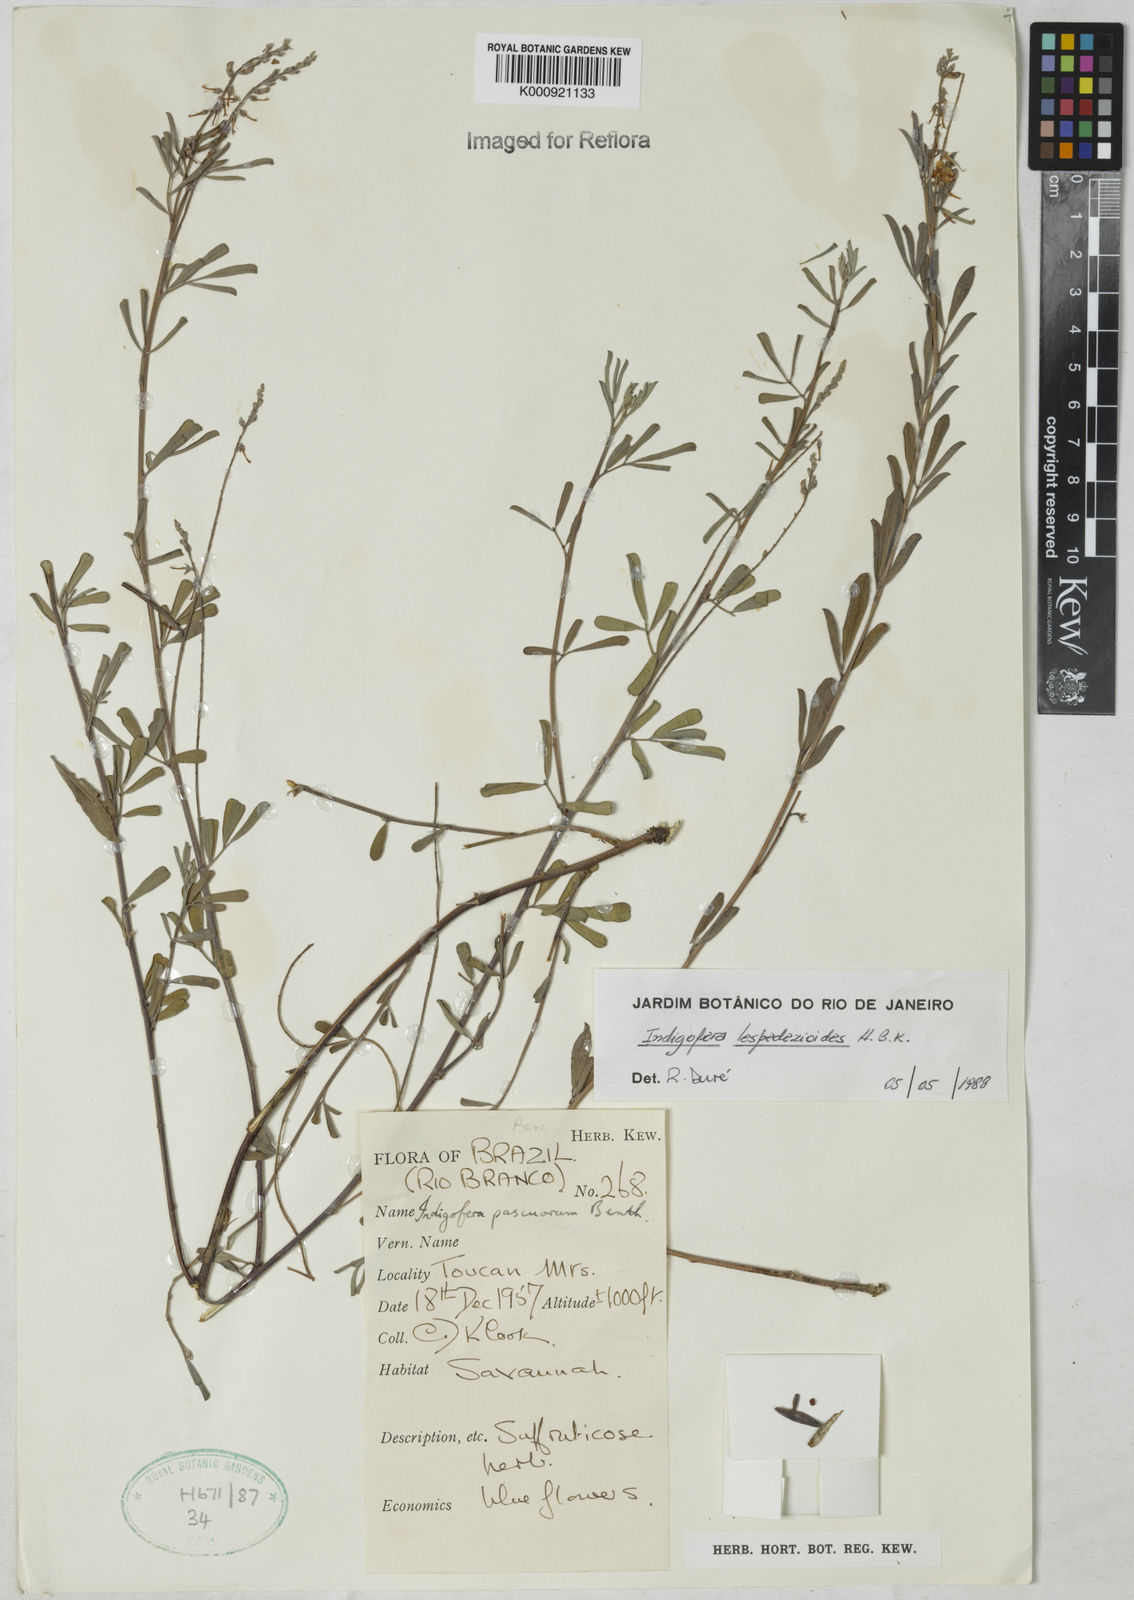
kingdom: Plantae
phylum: Tracheophyta
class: Magnoliopsida
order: Fabales
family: Fabaceae
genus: Indigofera
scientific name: Indigofera lespedezioides
